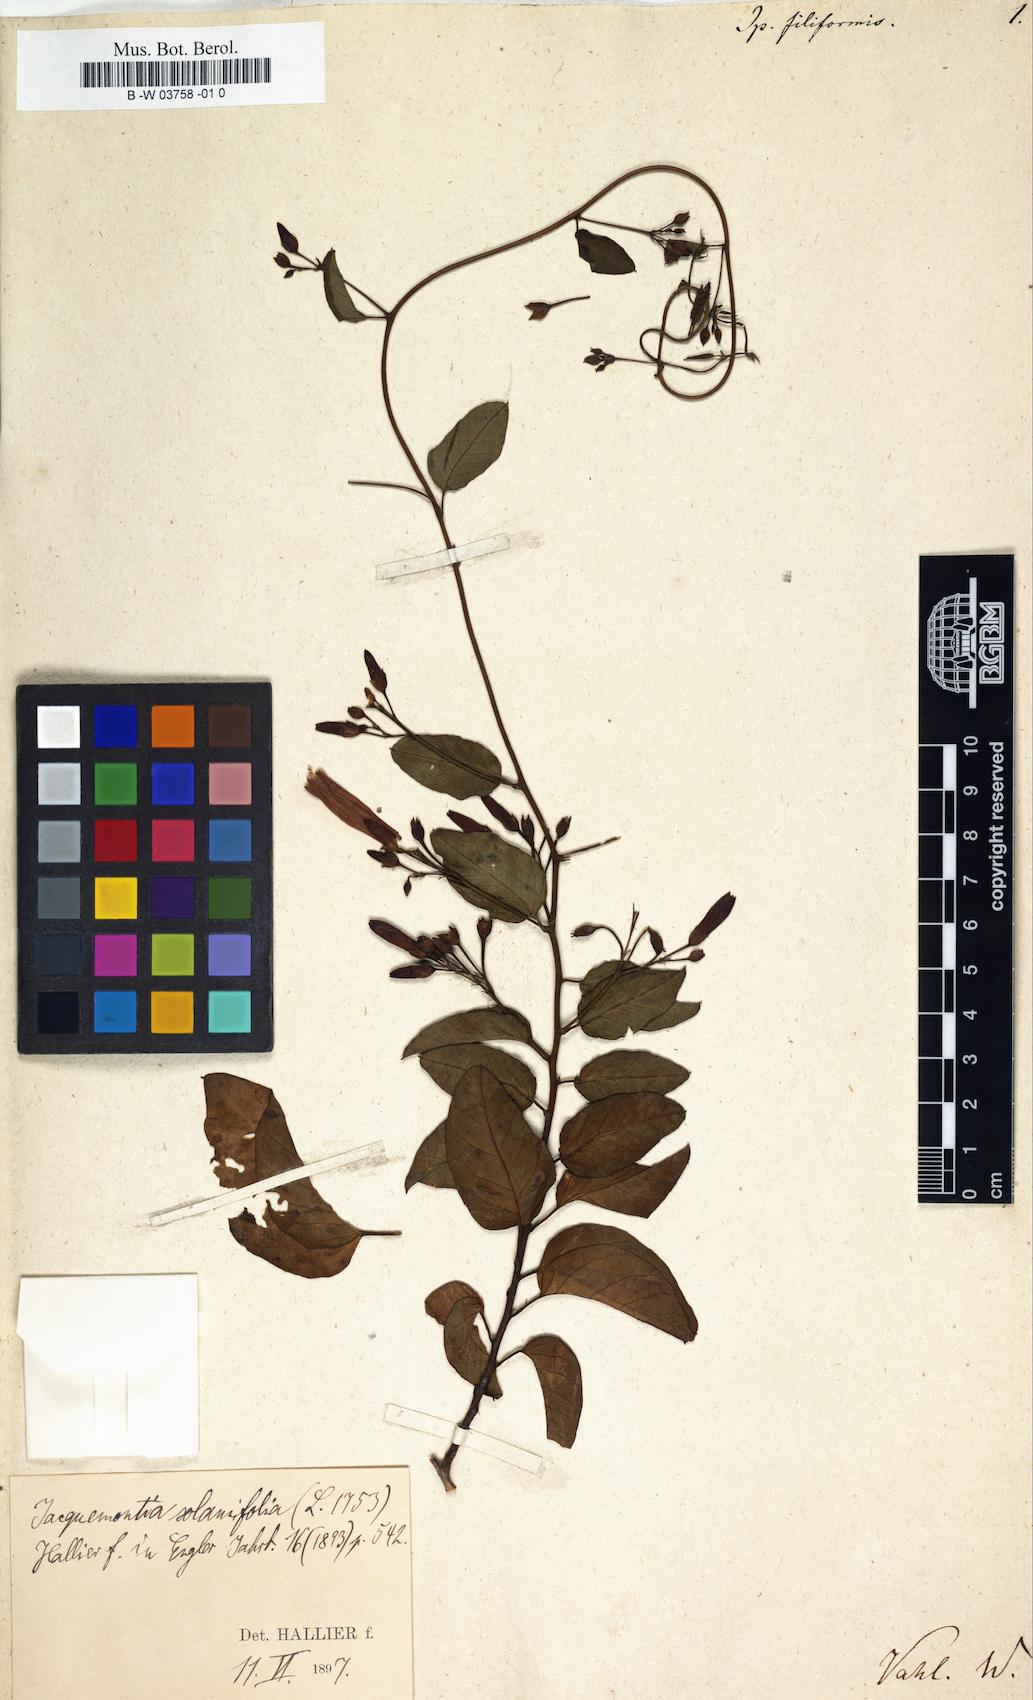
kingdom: Plantae
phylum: Tracheophyta
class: Magnoliopsida
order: Solanales
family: Convolvulaceae
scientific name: Convolvulaceae
